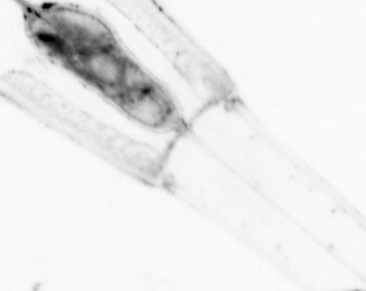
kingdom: Animalia
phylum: Chaetognatha
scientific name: Chaetognatha
